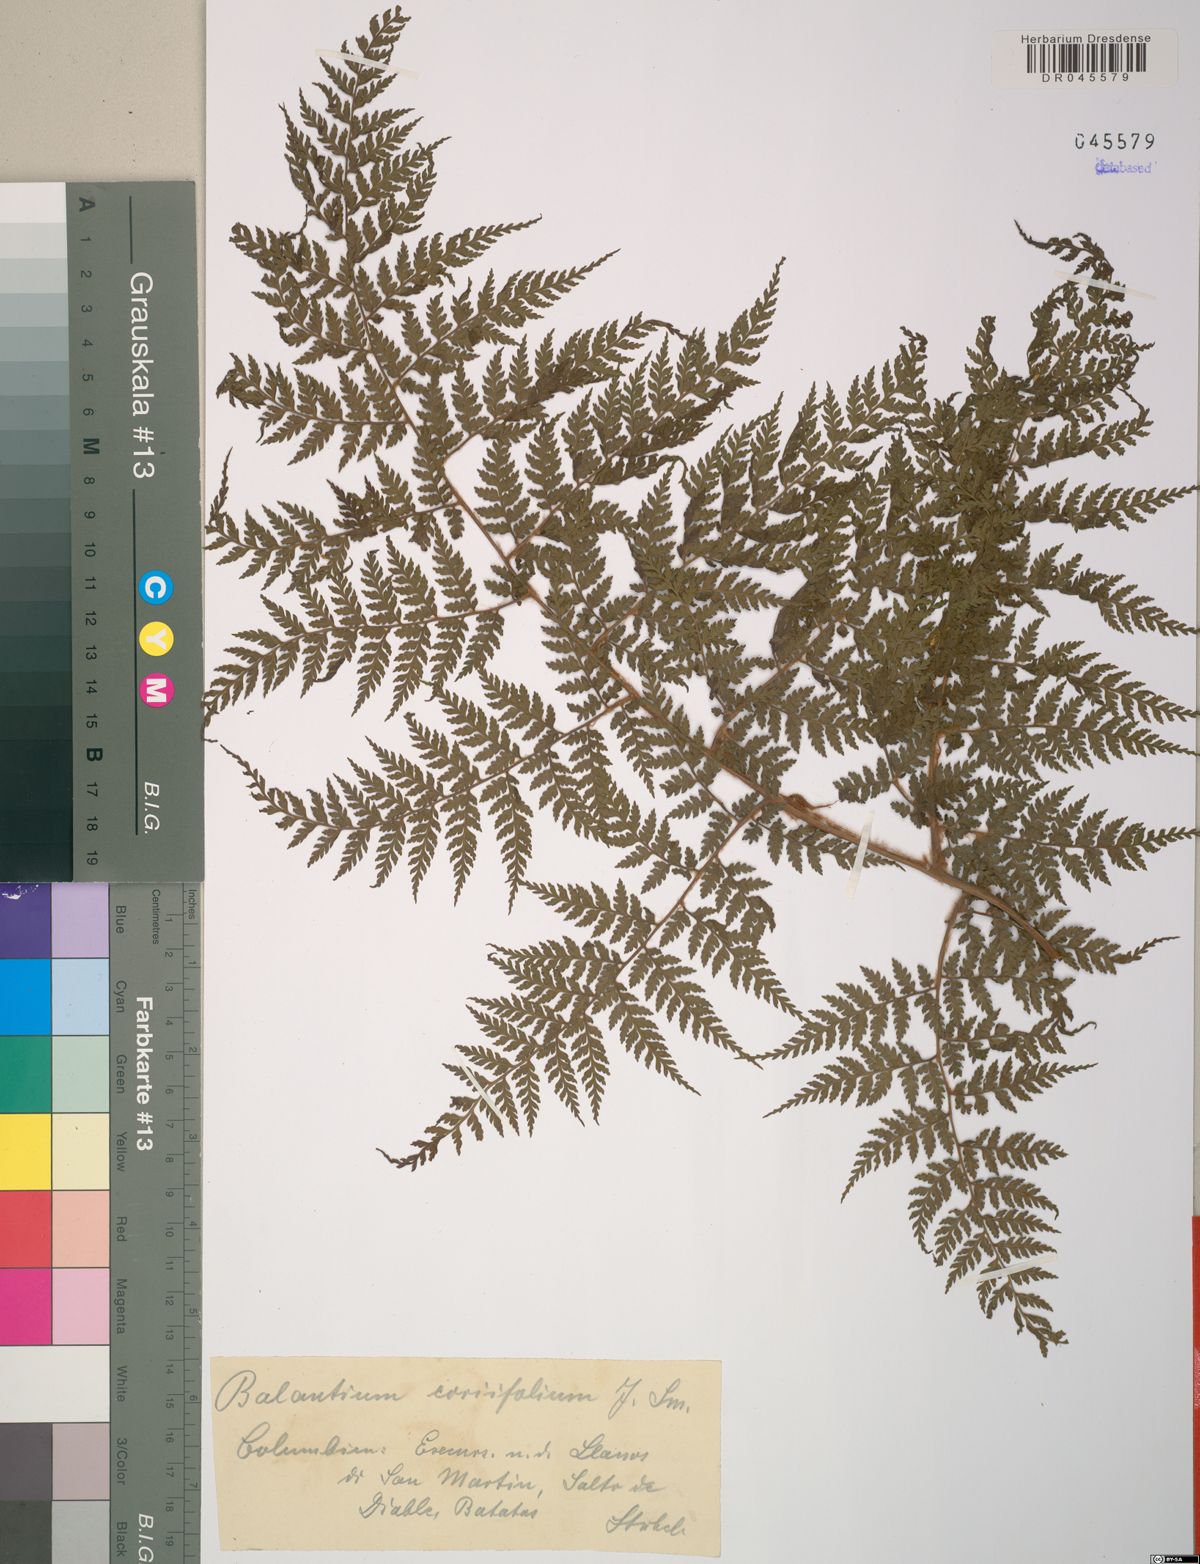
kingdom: Plantae
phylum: Tracheophyta
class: Polypodiopsida
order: Cyatheales
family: Culcitaceae
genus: Culcita
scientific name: Culcita coniifolia
